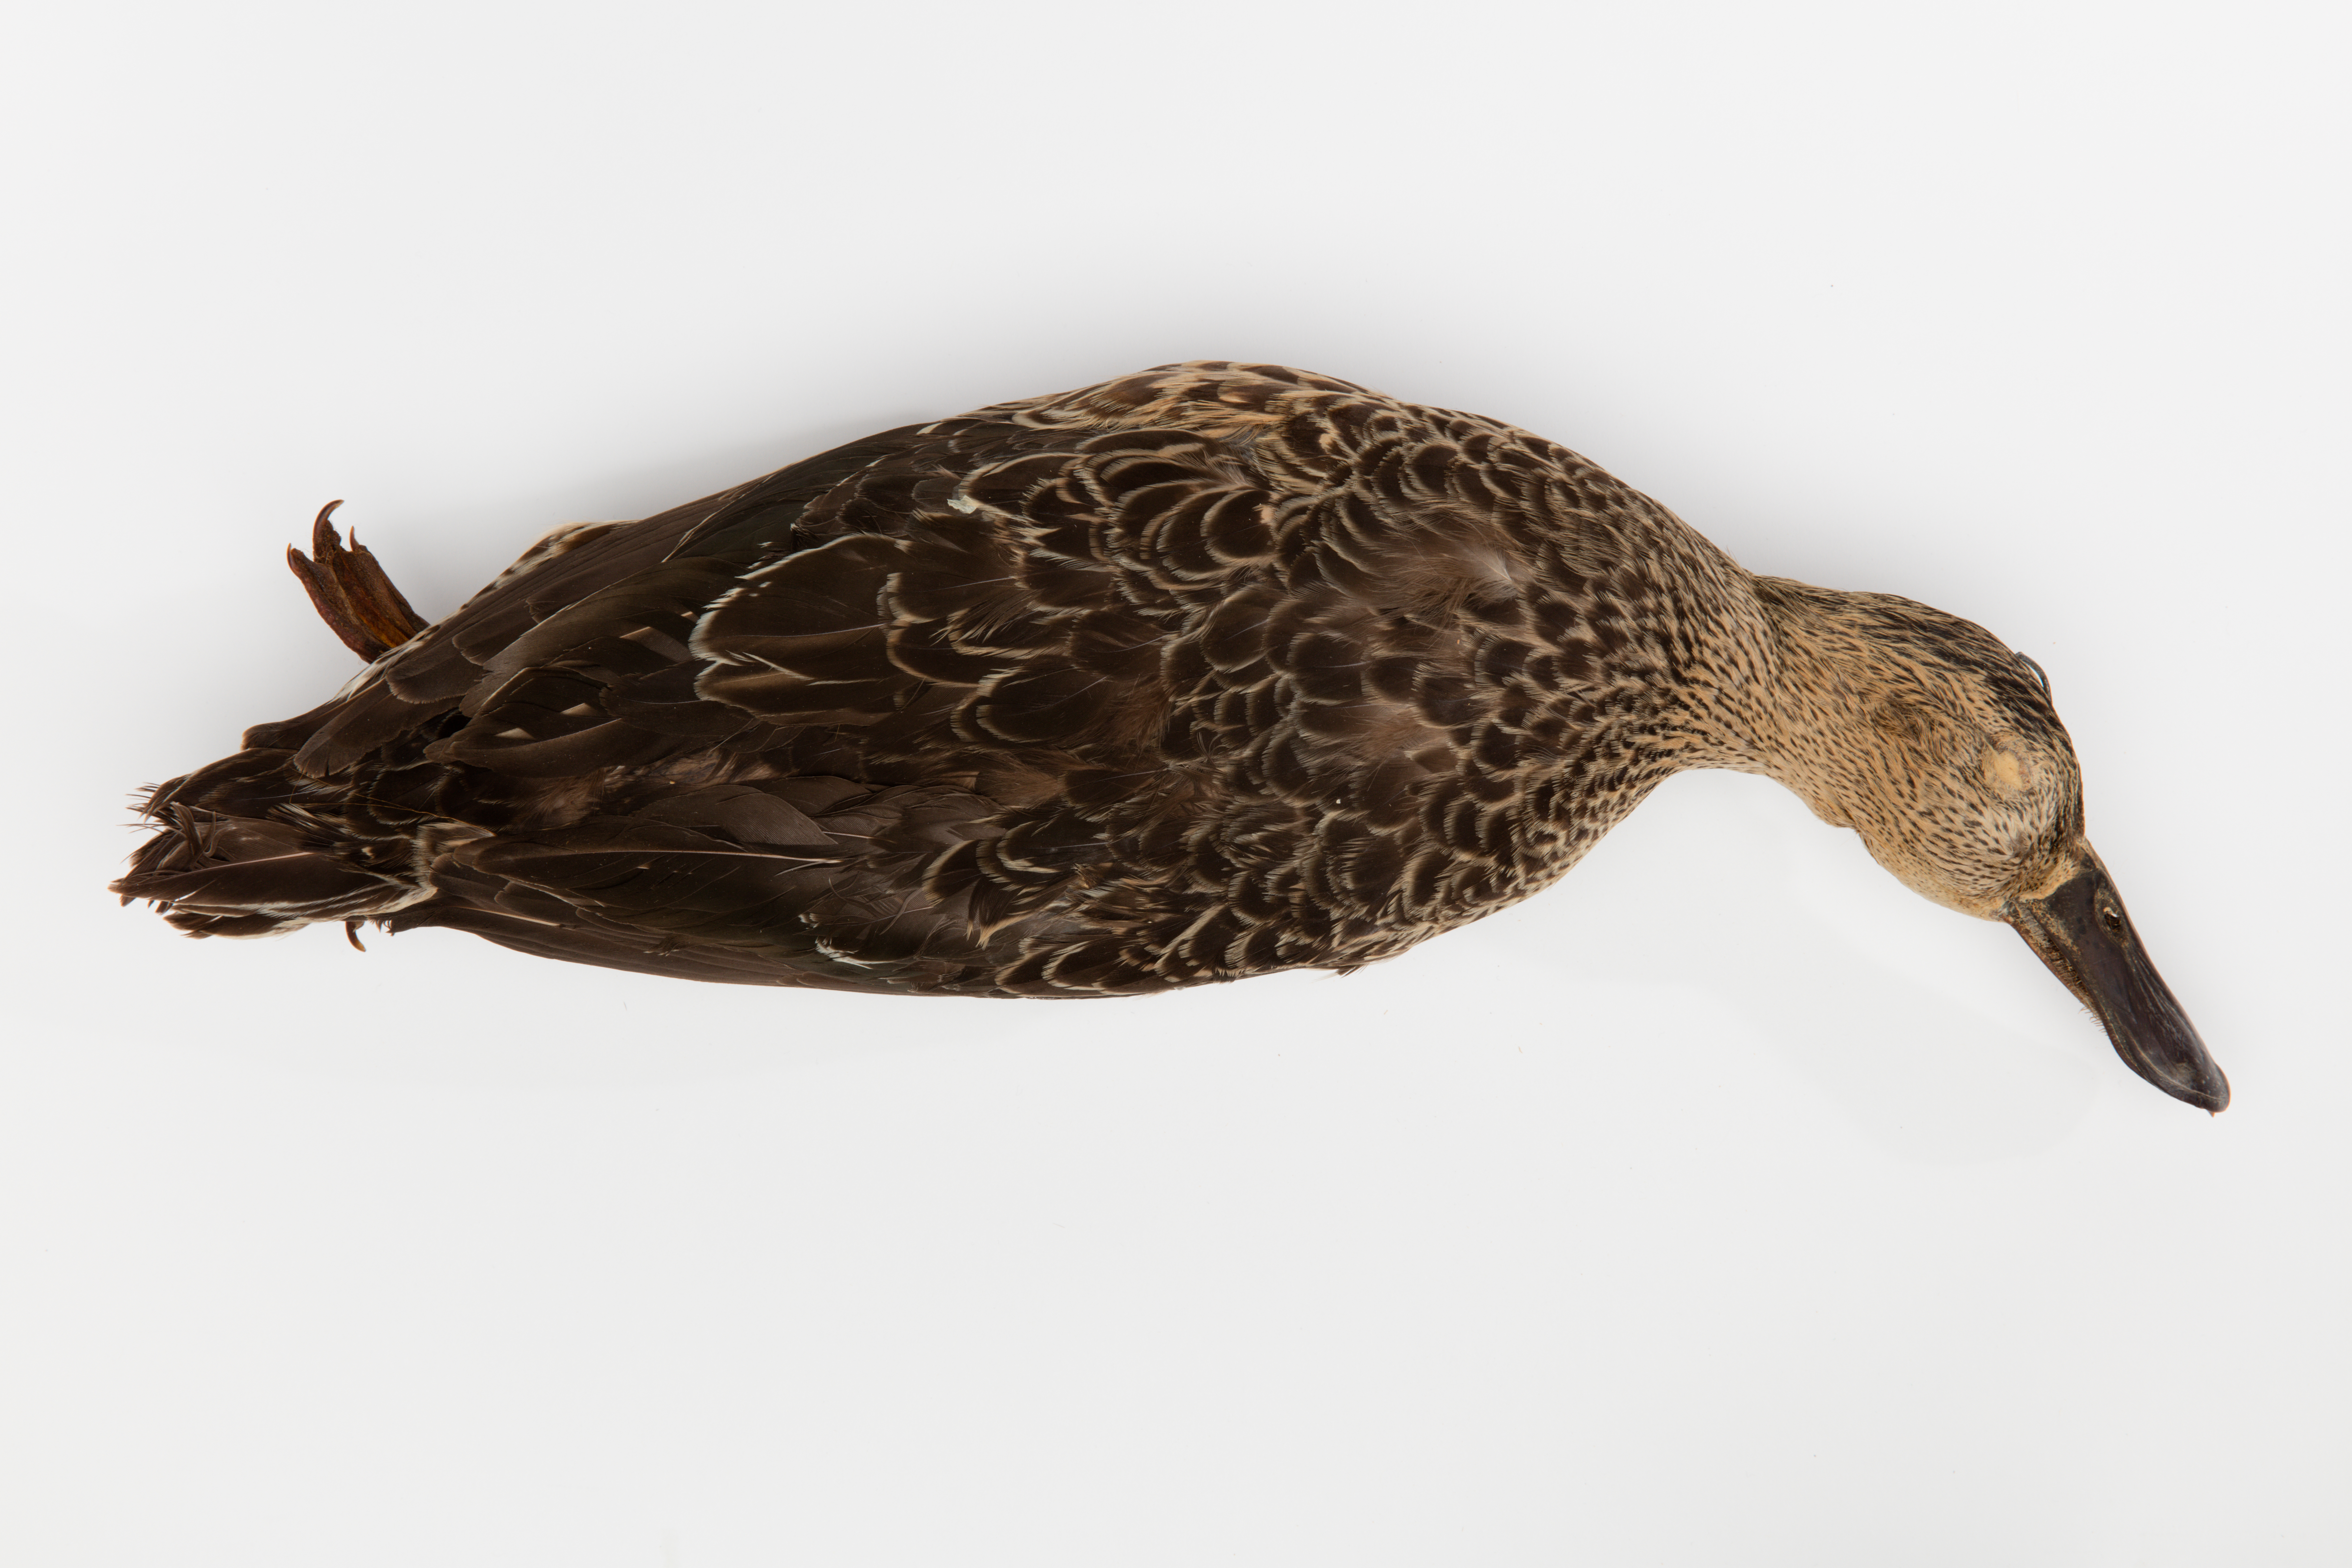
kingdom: Animalia
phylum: Chordata
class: Aves
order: Anseriformes
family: Anatidae
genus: Spatula
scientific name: Spatula rhynchotis
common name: Australian shoveler
